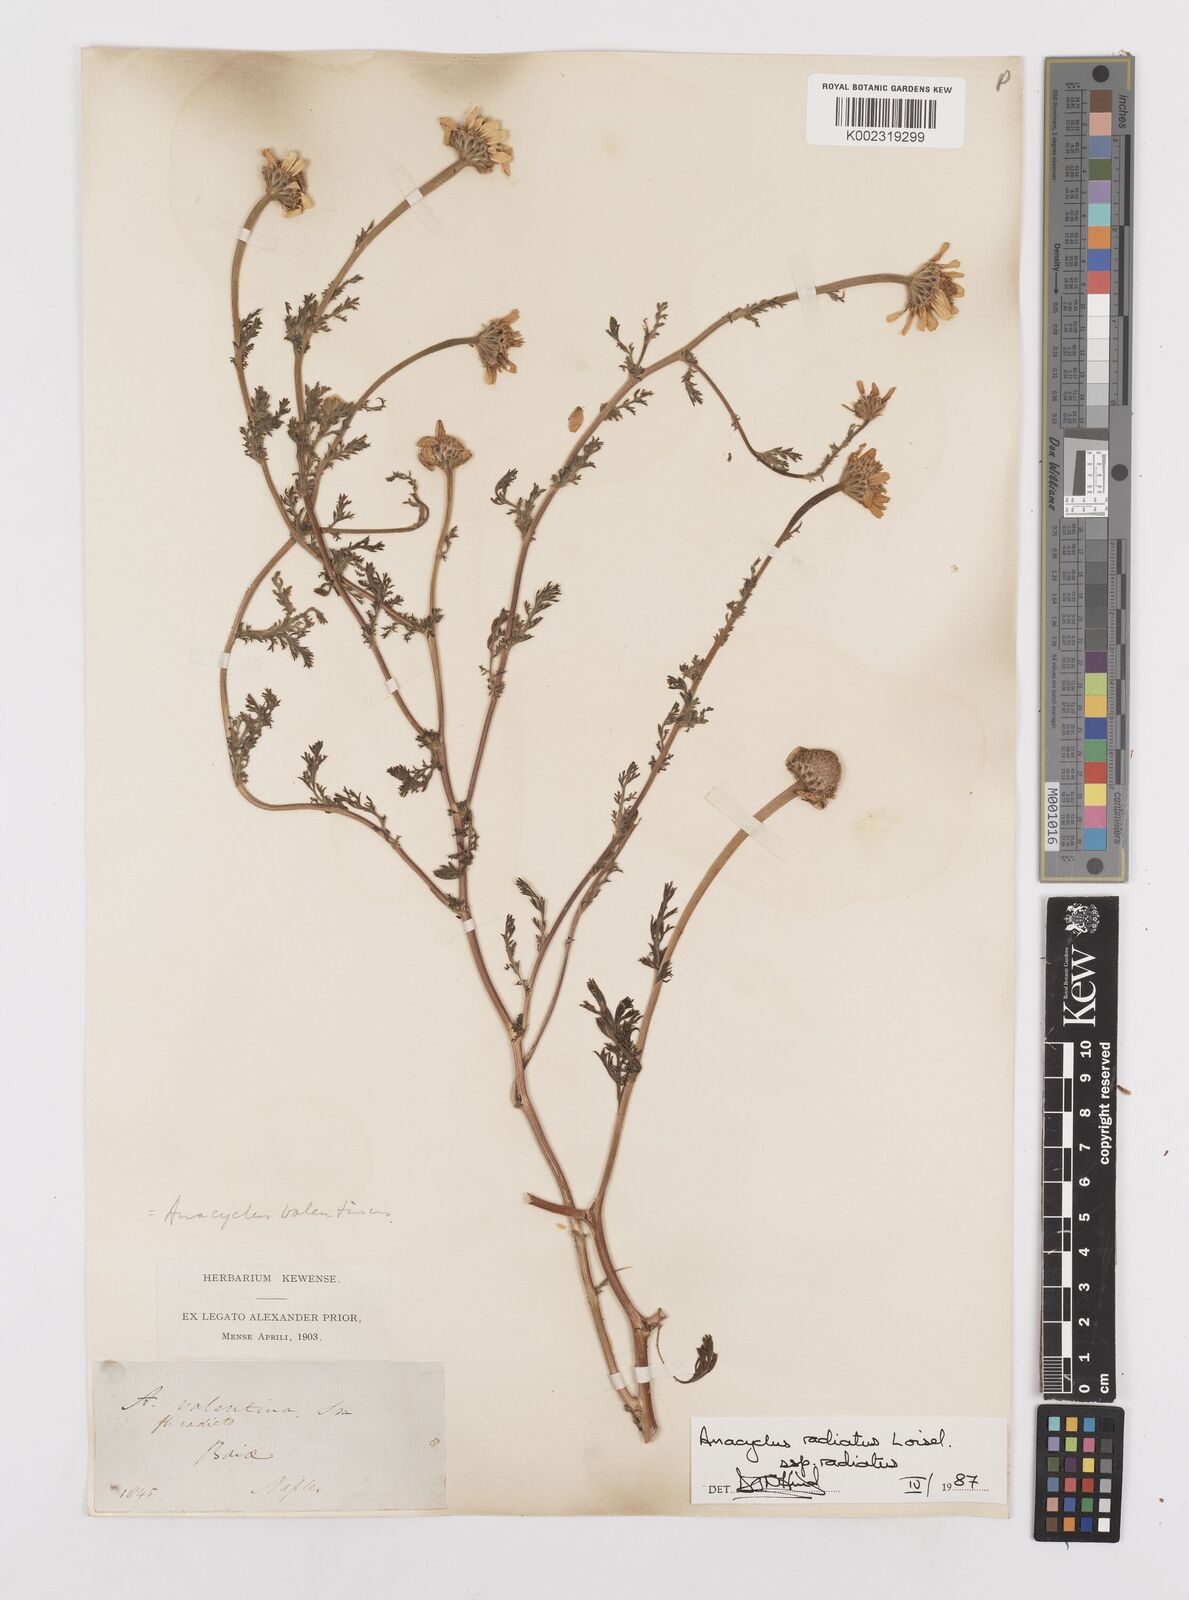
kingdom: Plantae
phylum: Tracheophyta
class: Magnoliopsida
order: Asterales
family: Asteraceae
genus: Anacyclus
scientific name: Anacyclus radiatus
